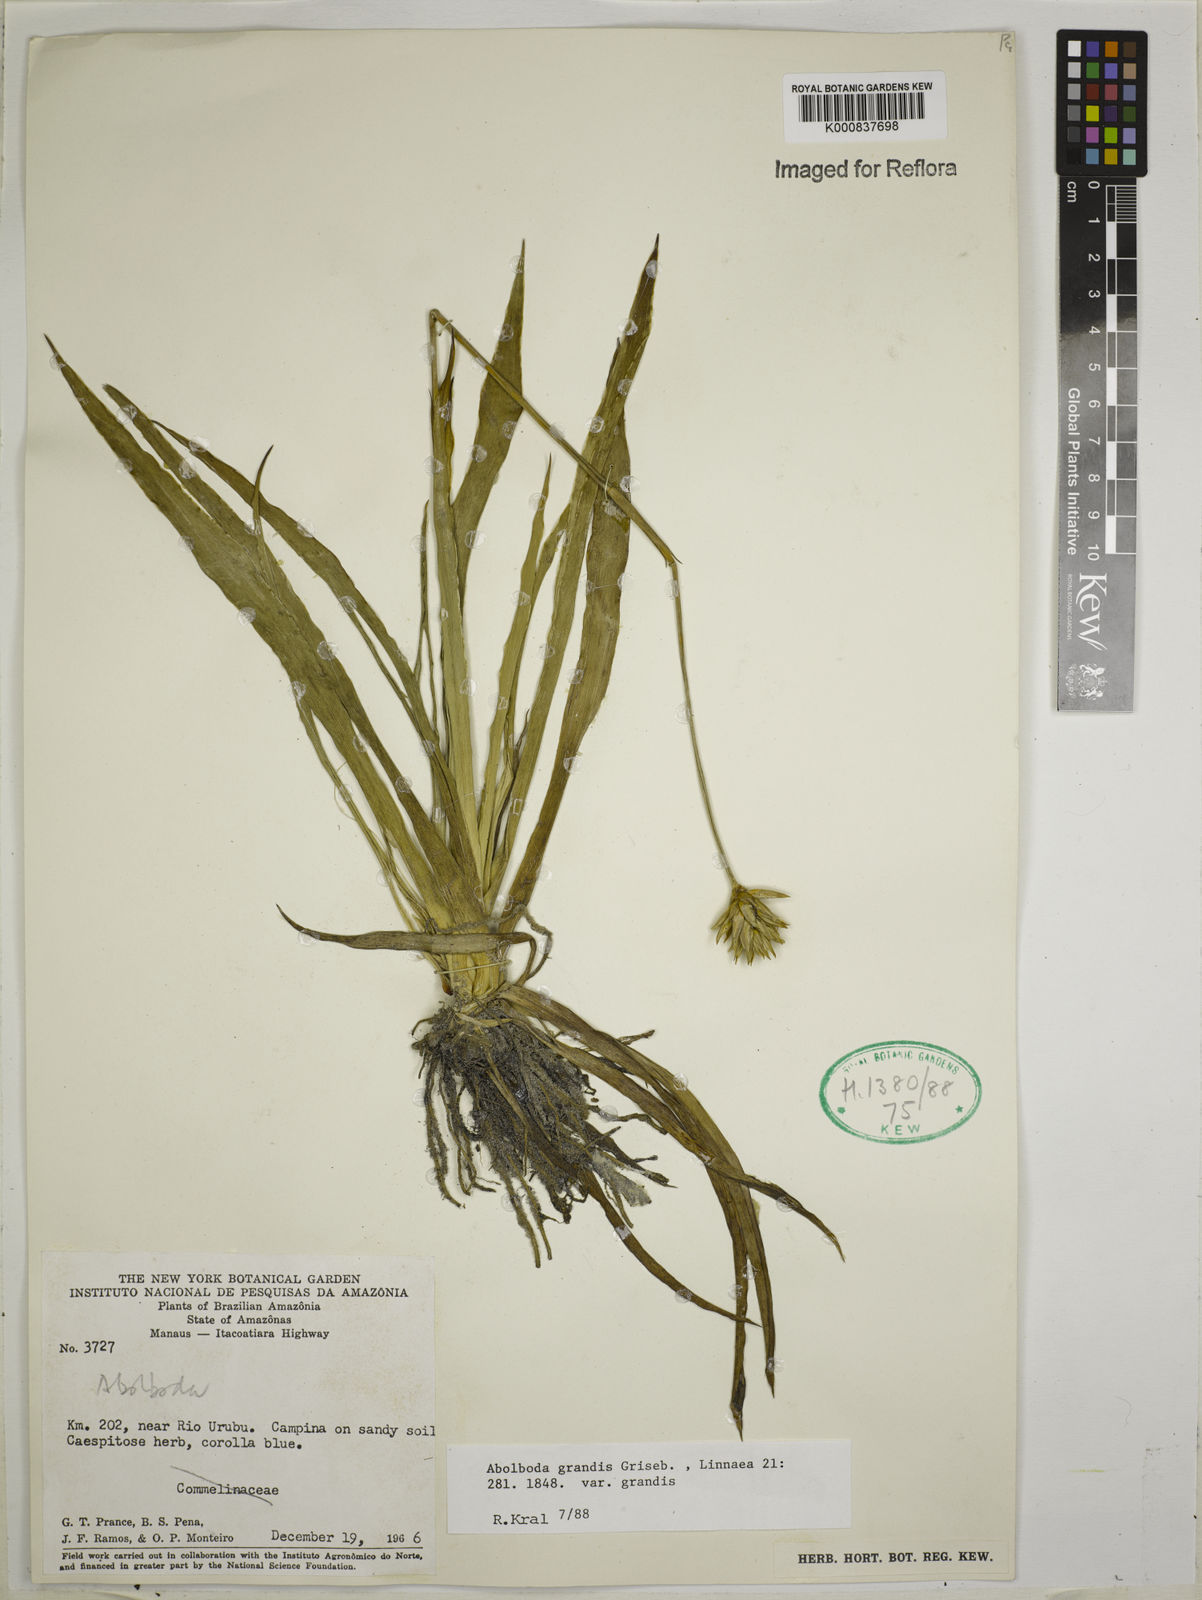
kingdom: Plantae
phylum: Tracheophyta
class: Liliopsida
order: Poales
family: Xyridaceae
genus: Abolboda
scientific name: Abolboda grandis
